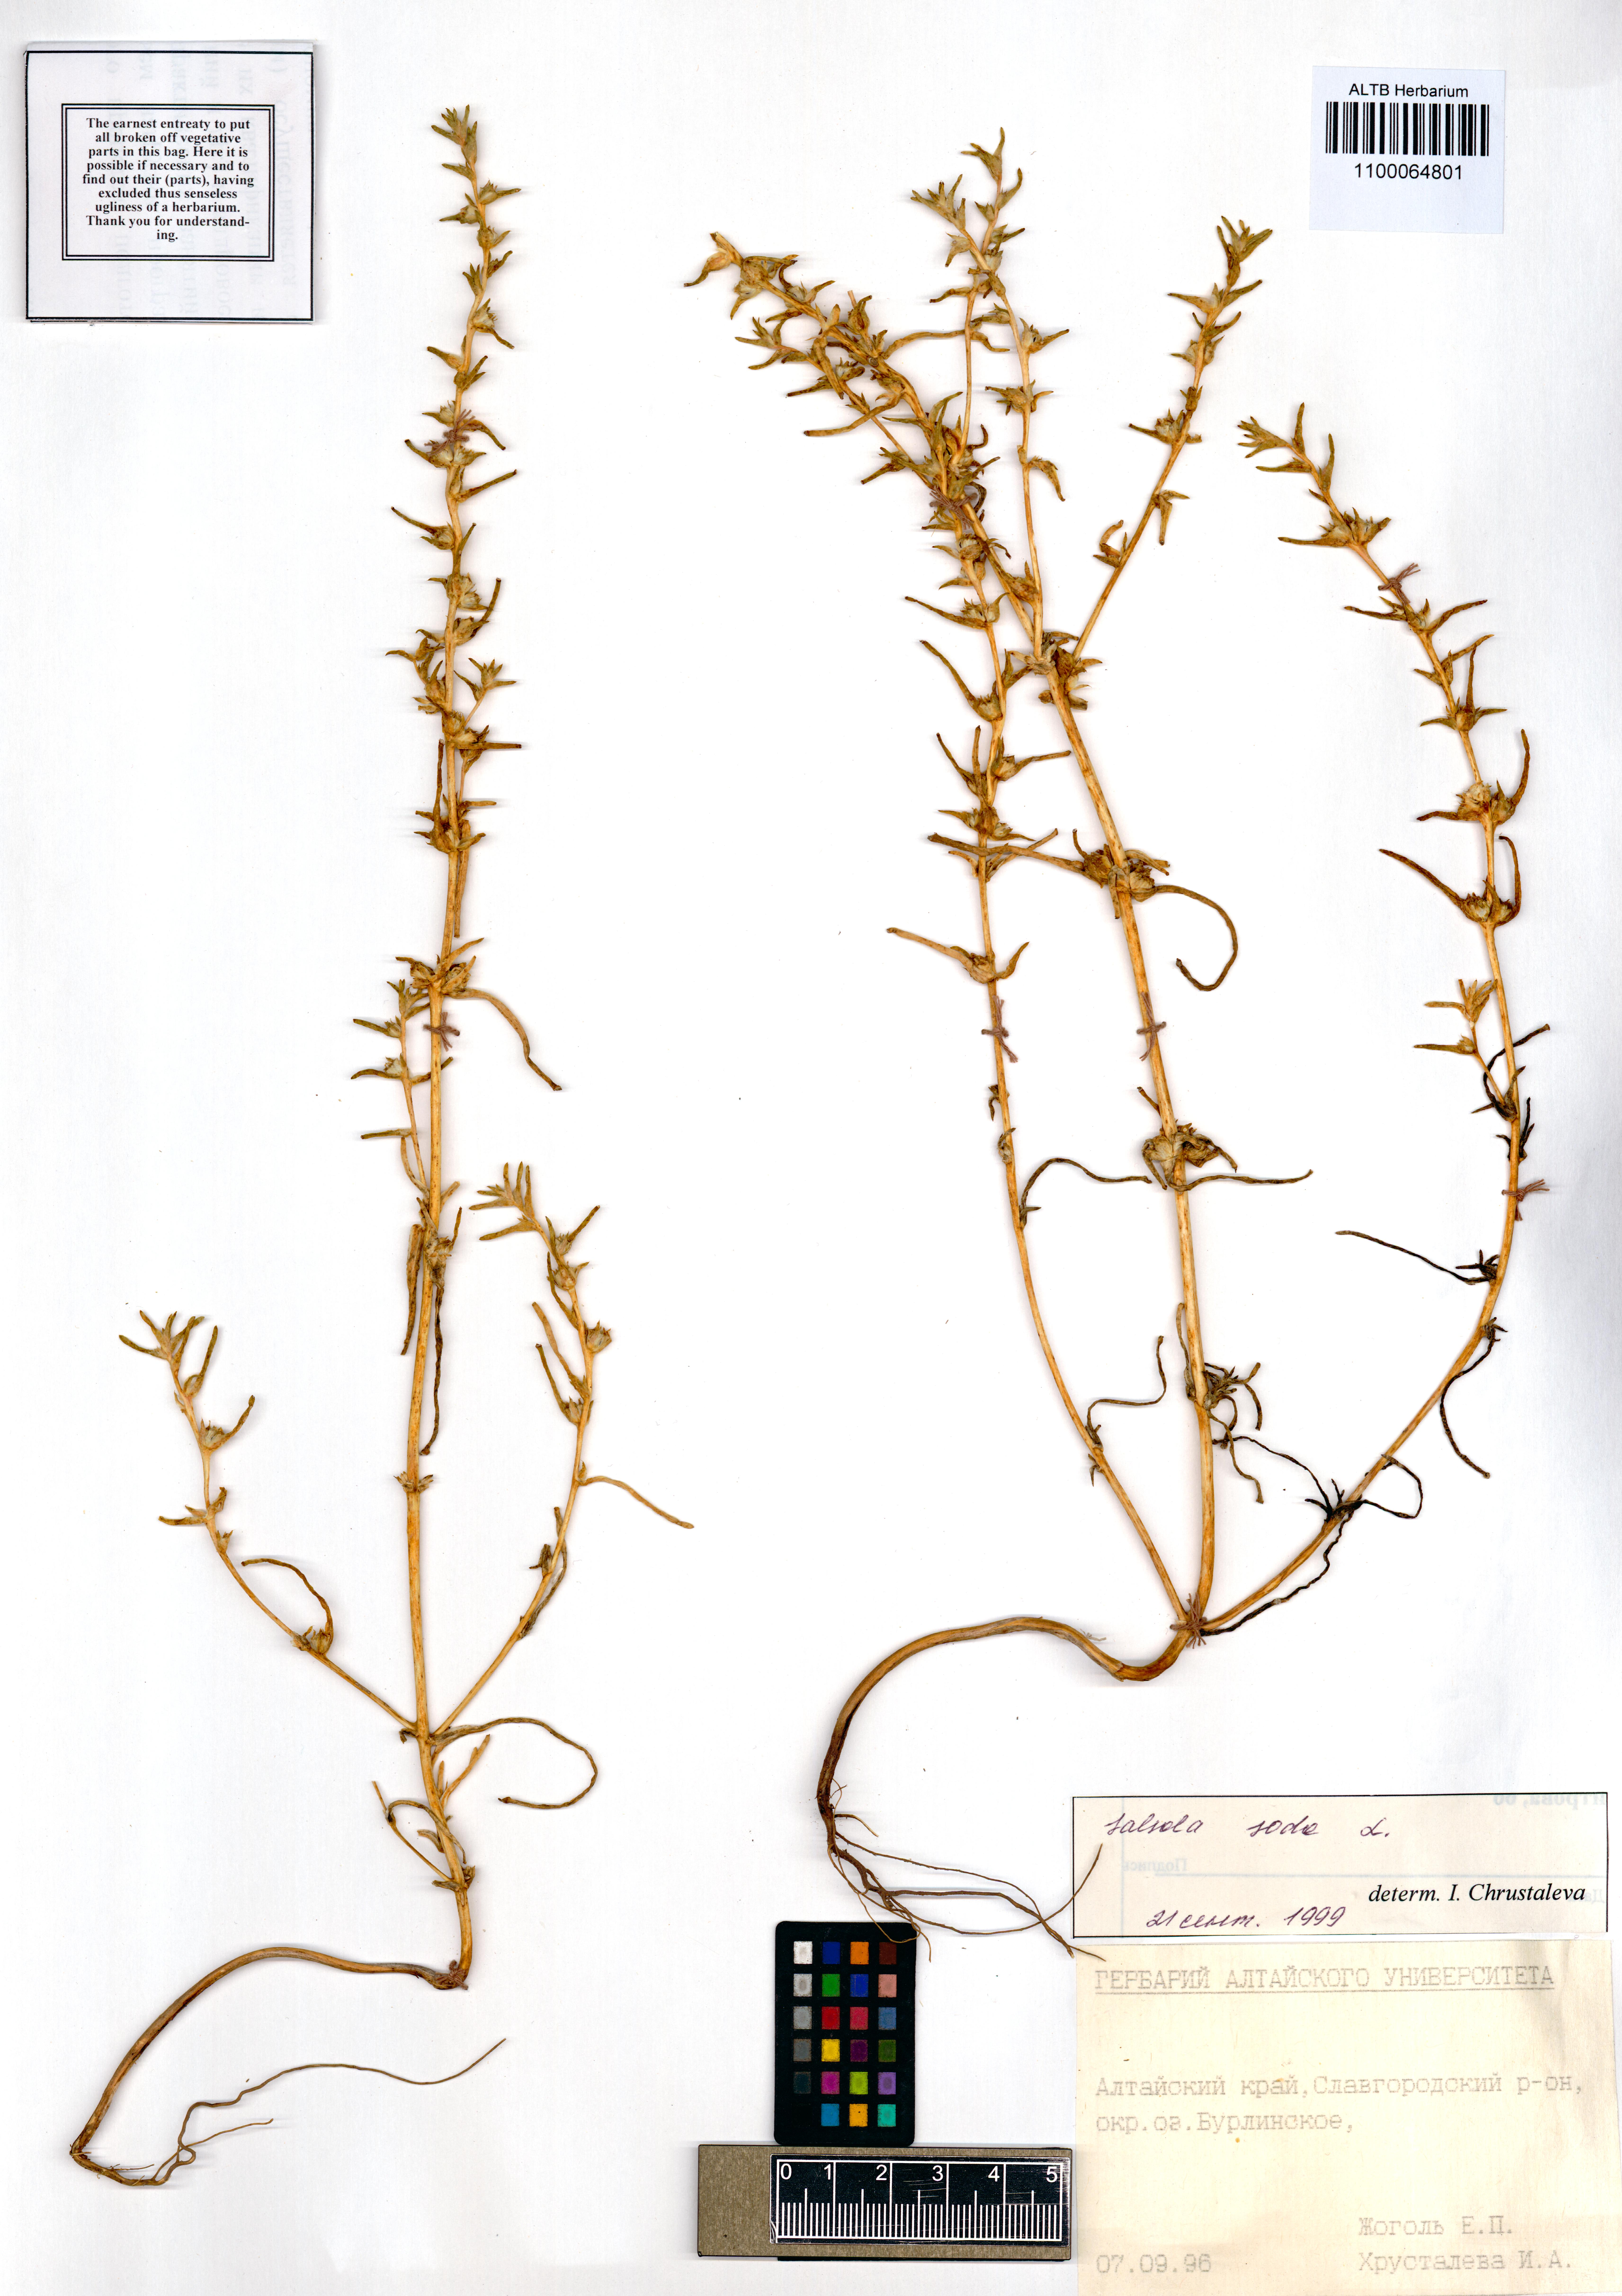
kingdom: Plantae
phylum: Tracheophyta
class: Magnoliopsida
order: Caryophyllales
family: Amaranthaceae
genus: Soda
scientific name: Soda inermis
